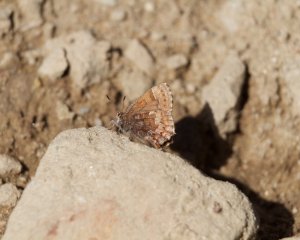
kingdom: Animalia
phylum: Arthropoda
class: Insecta
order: Lepidoptera
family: Lycaenidae
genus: Incisalia
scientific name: Incisalia niphon
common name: Eastern Pine Elfin
